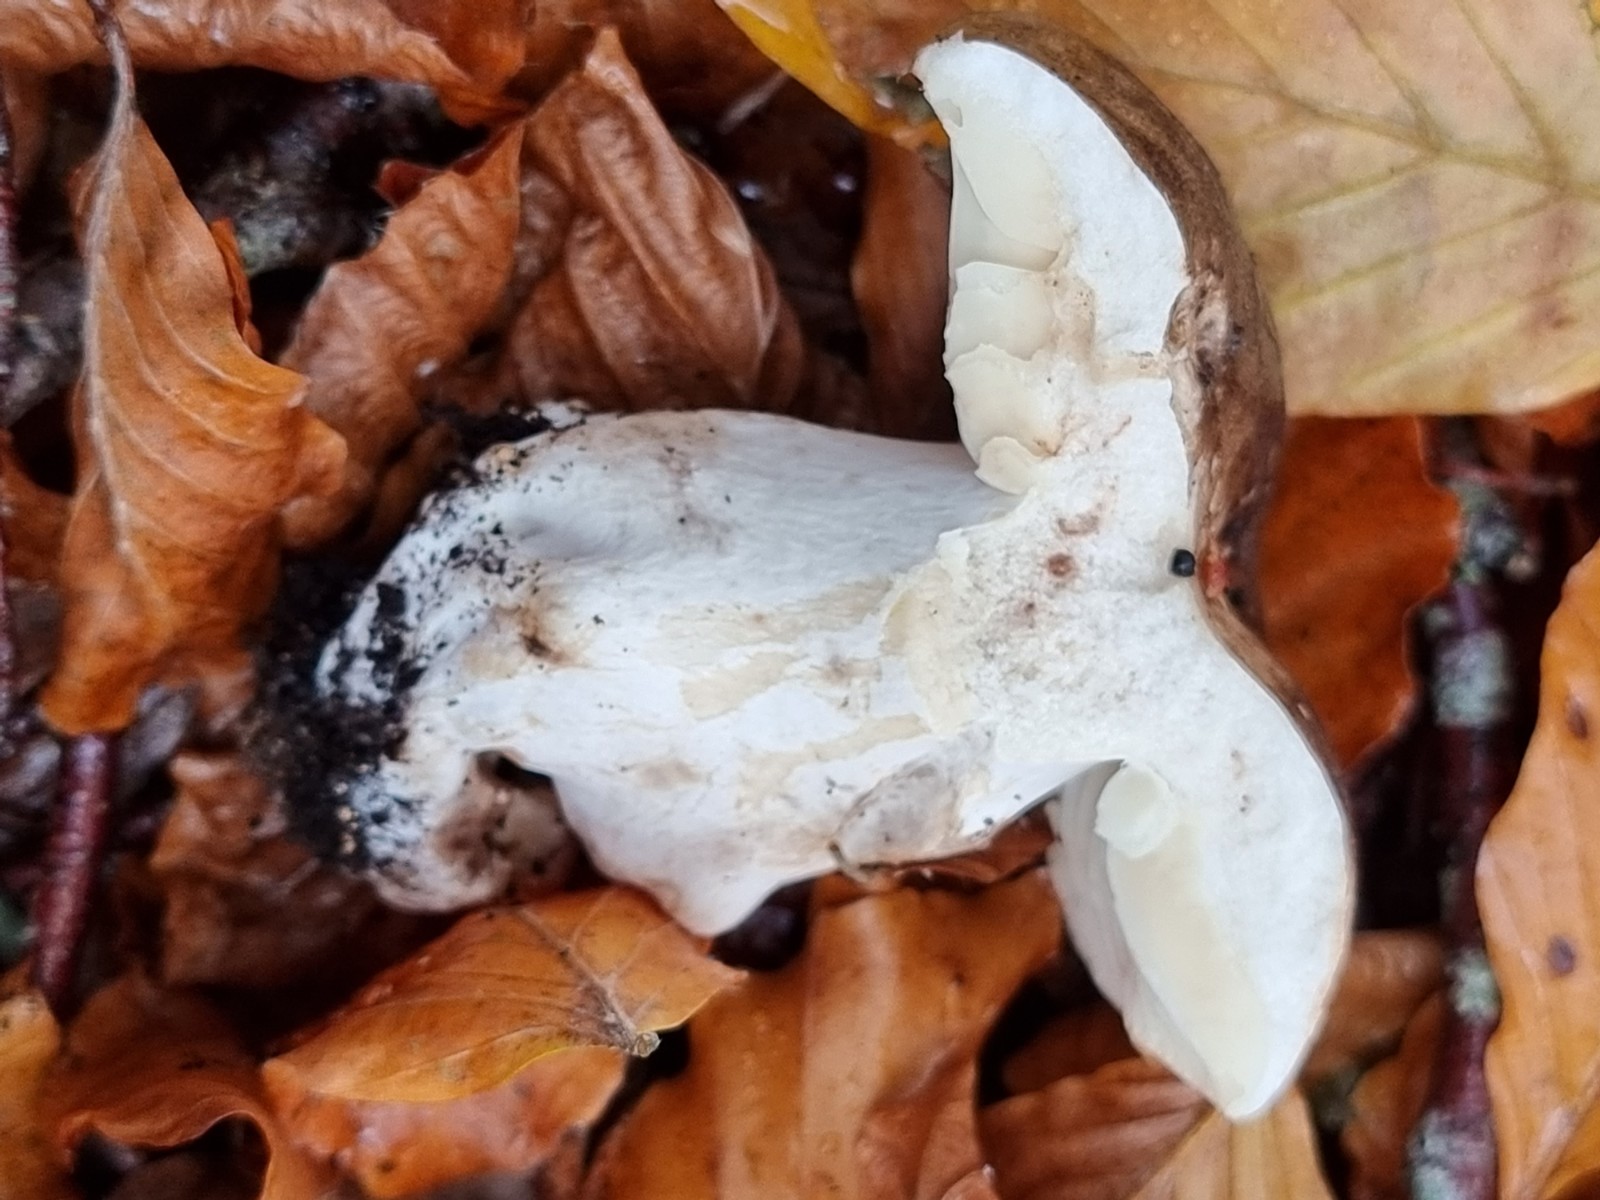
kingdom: Fungi
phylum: Basidiomycota
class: Agaricomycetes
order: Russulales
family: Russulaceae
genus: Russula
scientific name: Russula adusta
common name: sværtende skørhat
